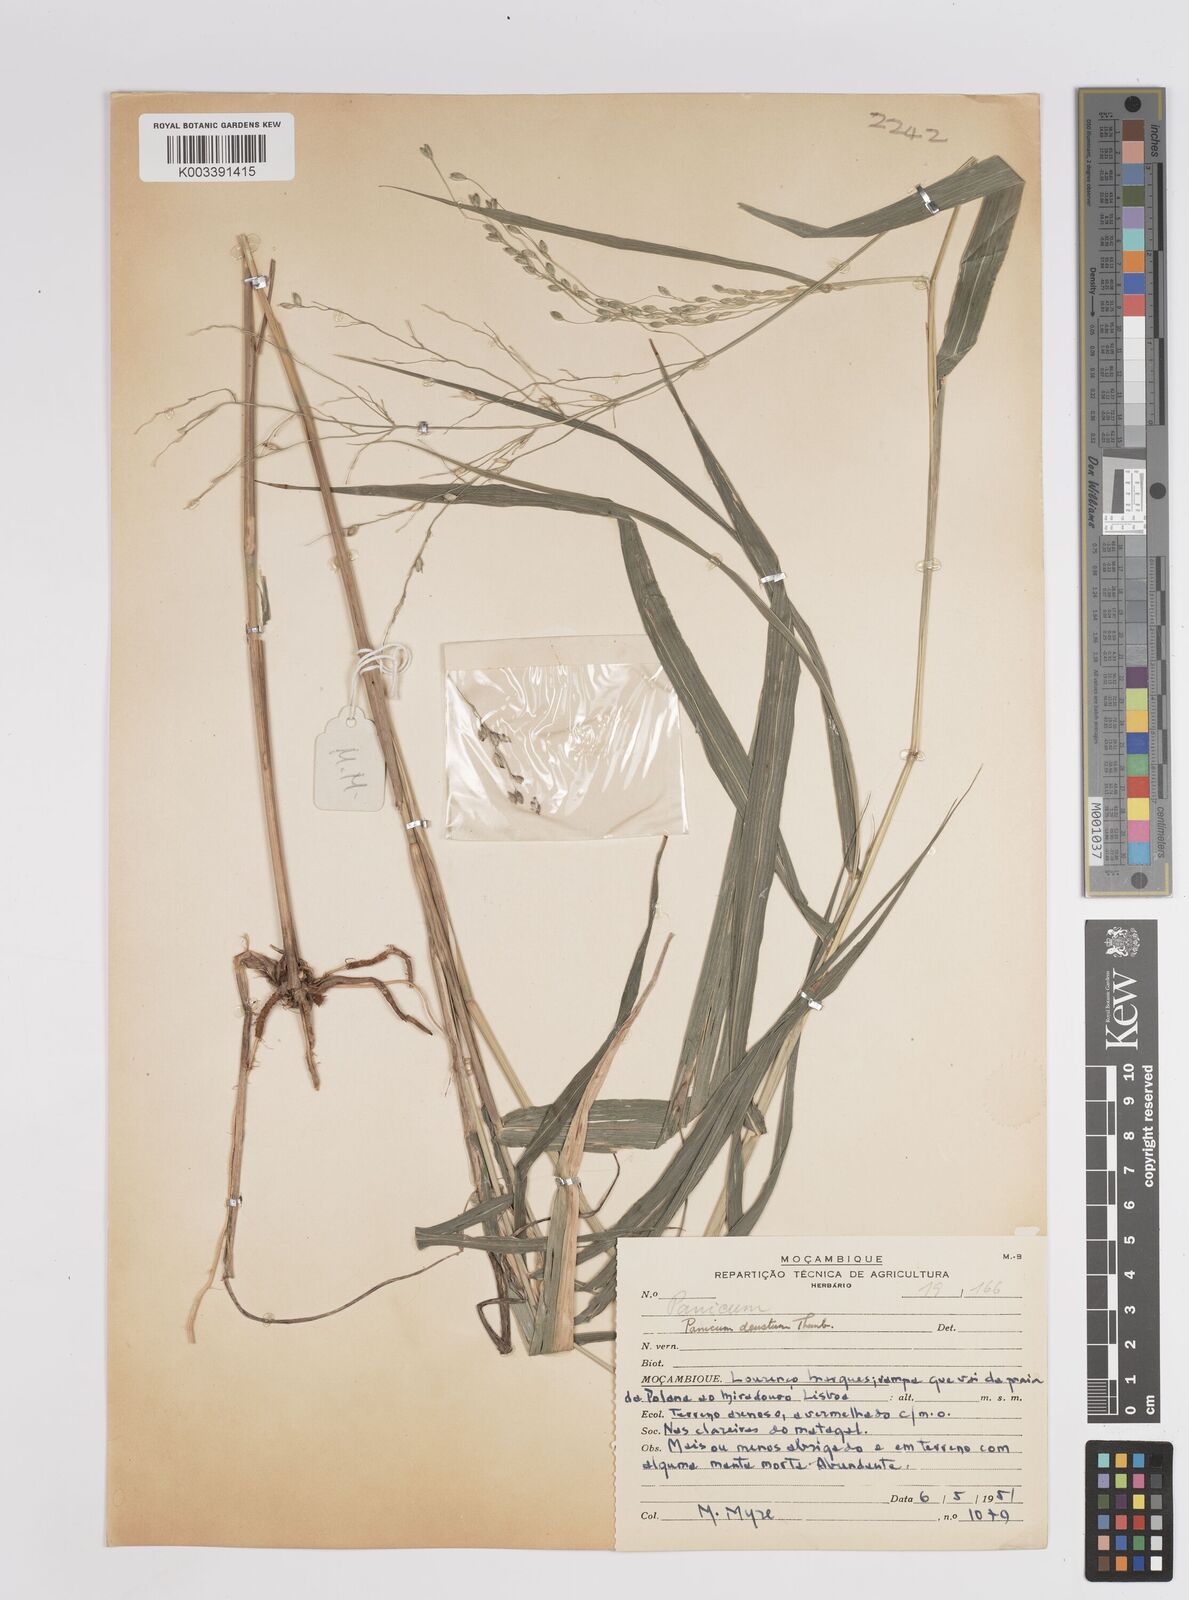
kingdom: Plantae
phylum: Tracheophyta
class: Liliopsida
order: Poales
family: Poaceae
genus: Panicum
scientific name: Panicum deustum
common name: Reed panicum
